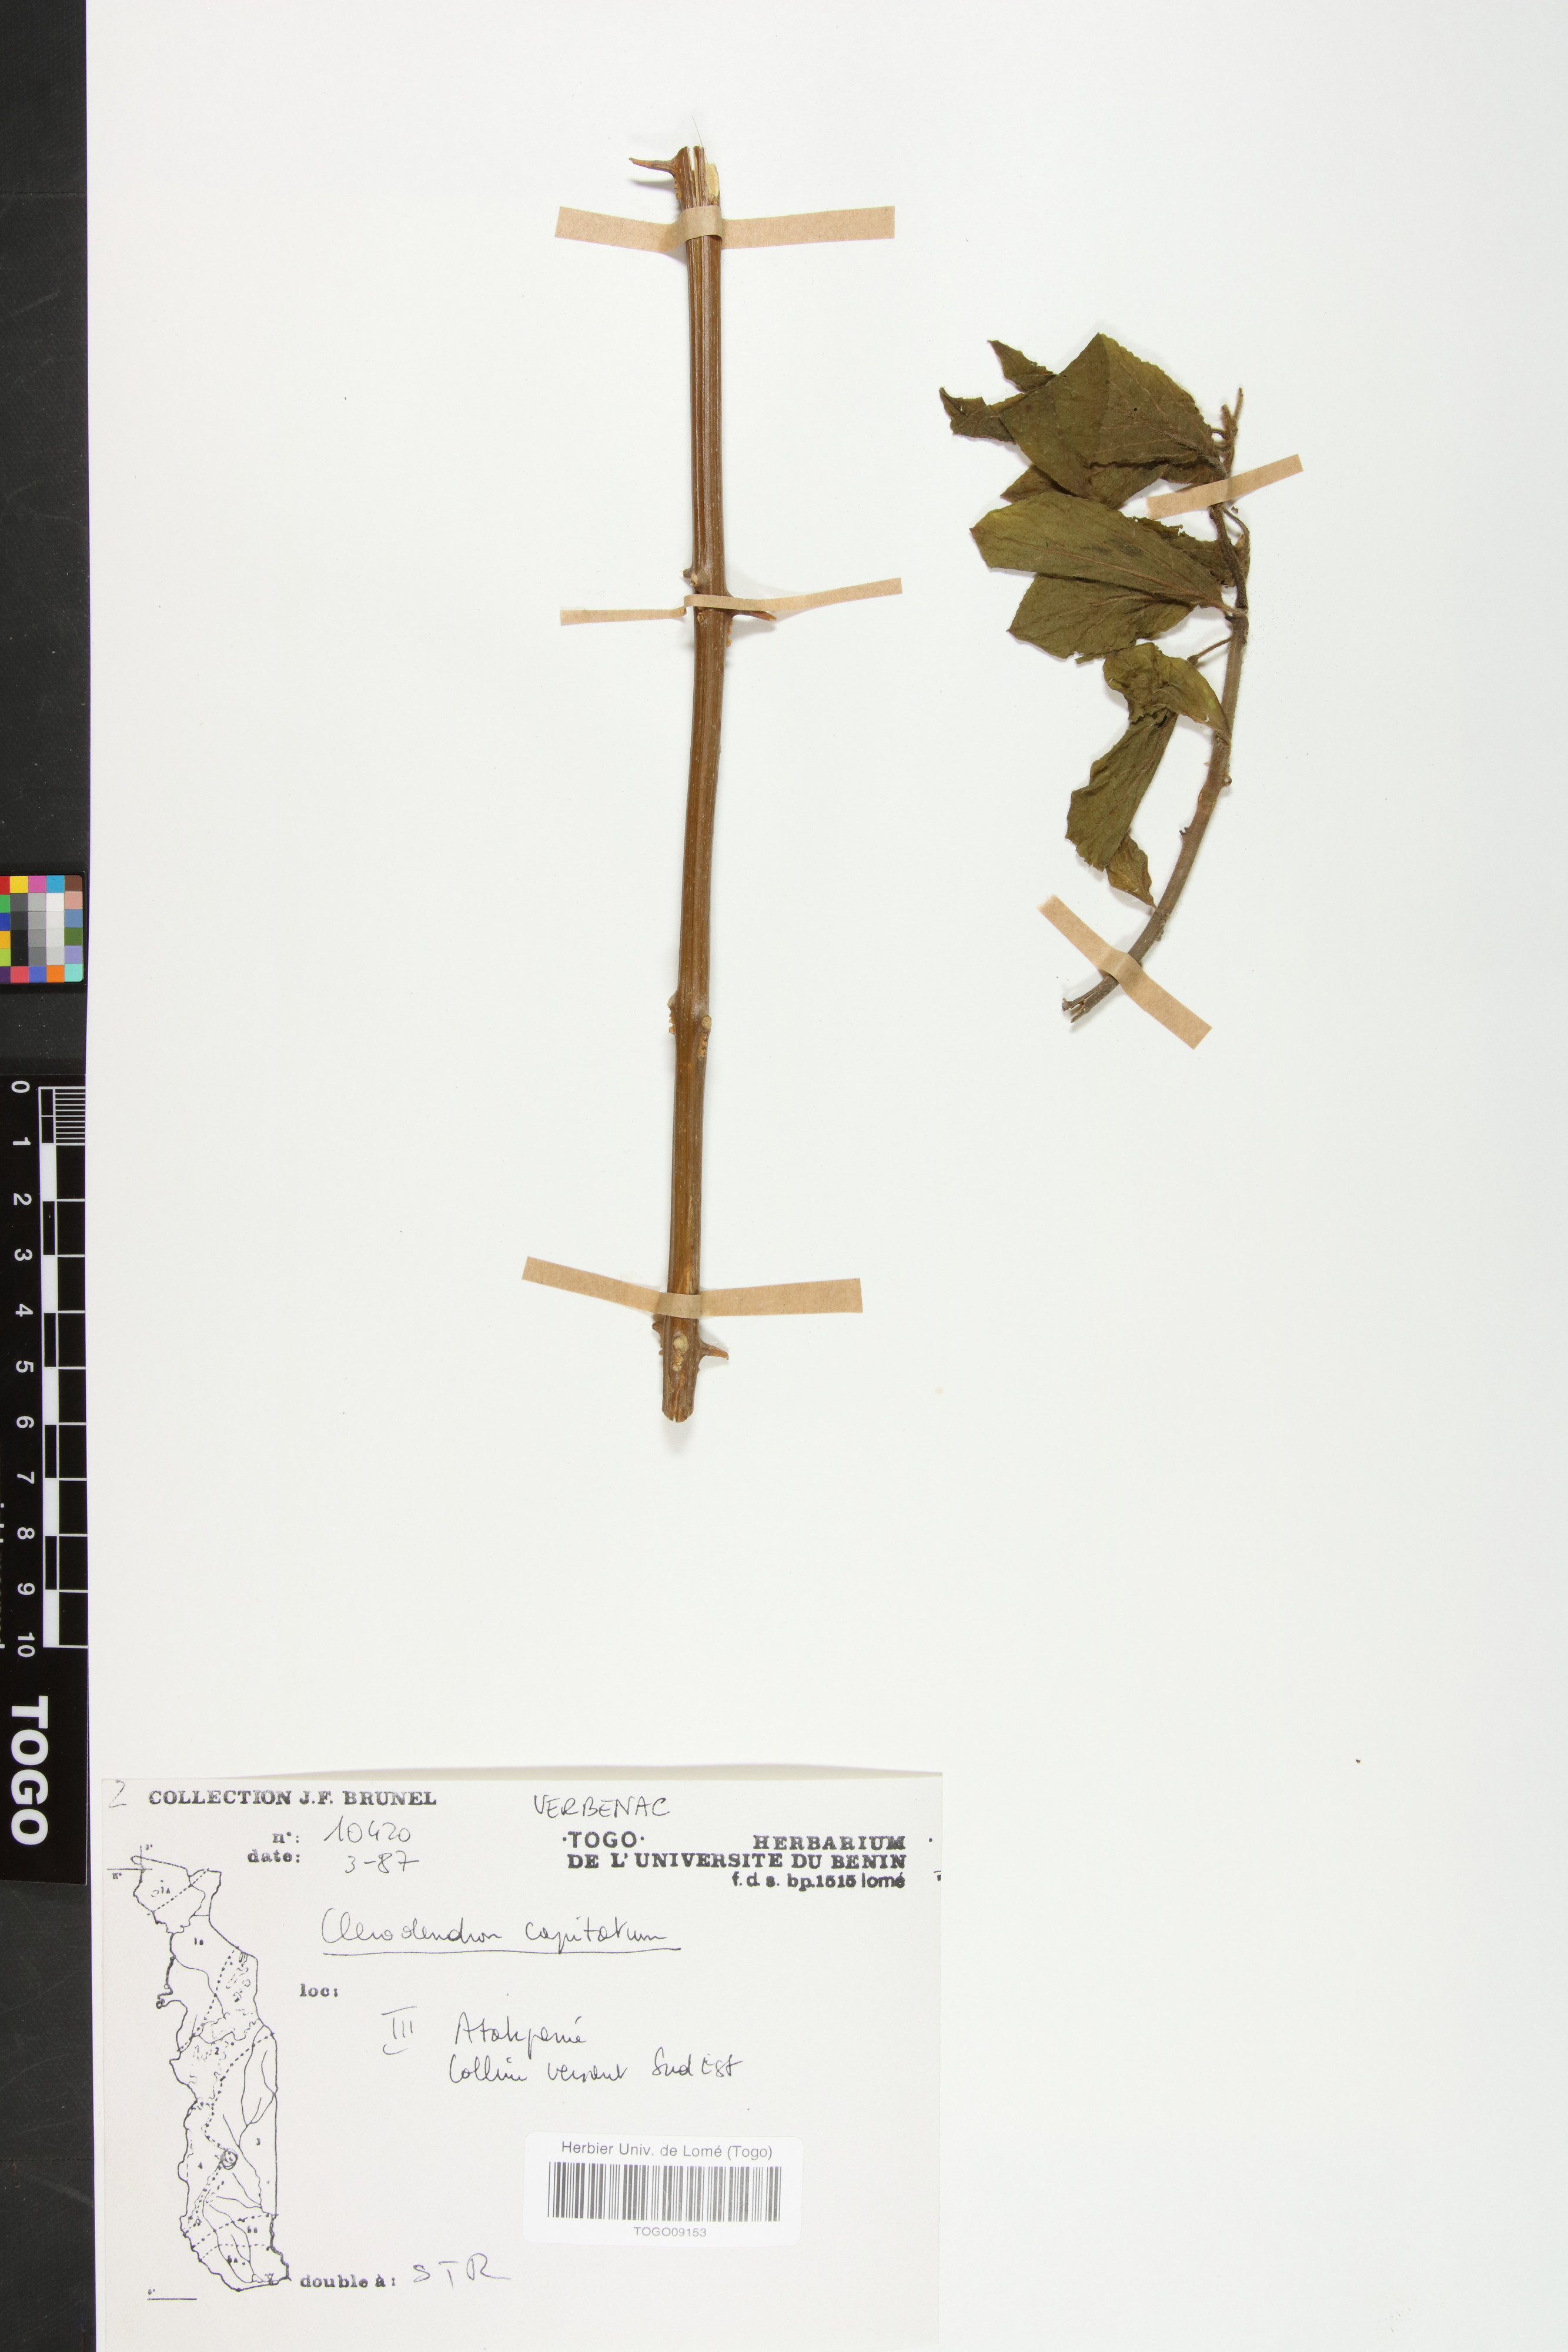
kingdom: Plantae
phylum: Tracheophyta
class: Magnoliopsida
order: Lamiales
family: Lamiaceae
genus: Clerodendrum
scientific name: Clerodendrum
